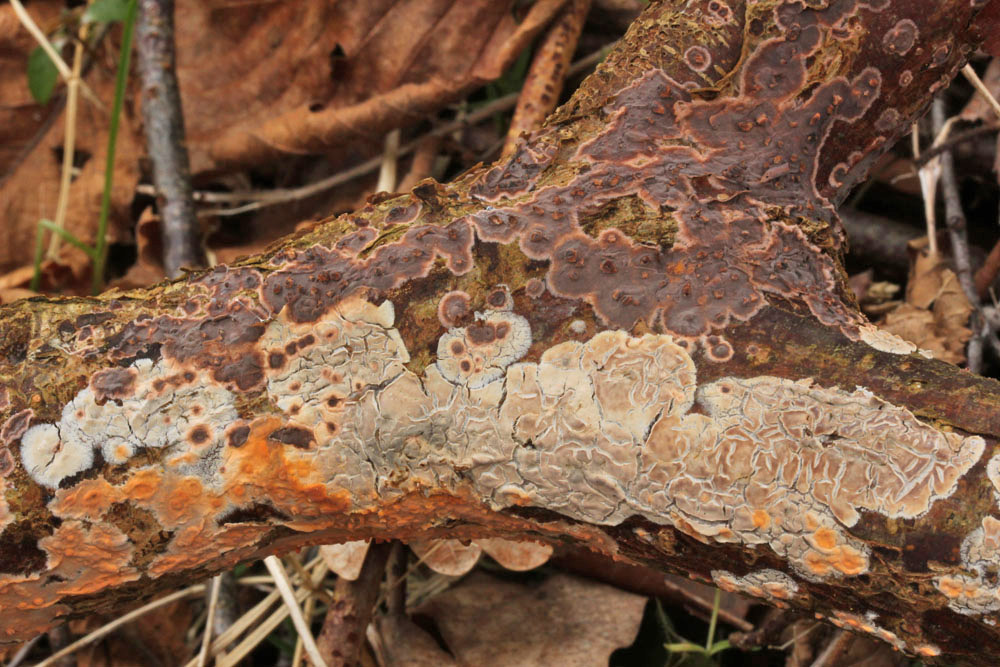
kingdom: Fungi
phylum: Basidiomycota
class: Agaricomycetes
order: Russulales
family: Peniophoraceae
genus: Peniophora
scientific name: Peniophora incarnata
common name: laksefarvet voksskind
